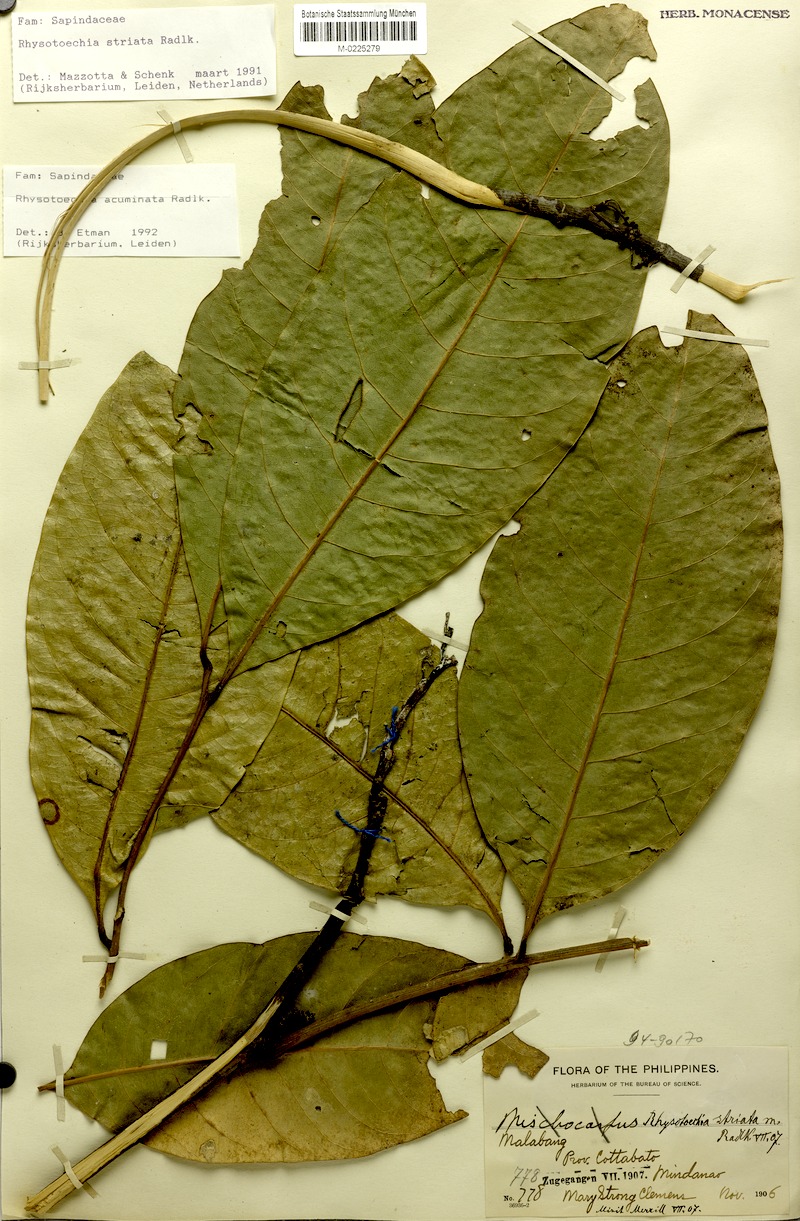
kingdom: Plantae
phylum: Tracheophyta
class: Magnoliopsida
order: Sapindales
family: Sapindaceae
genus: Rhysotoechia
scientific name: Rhysotoechia ramiflora
